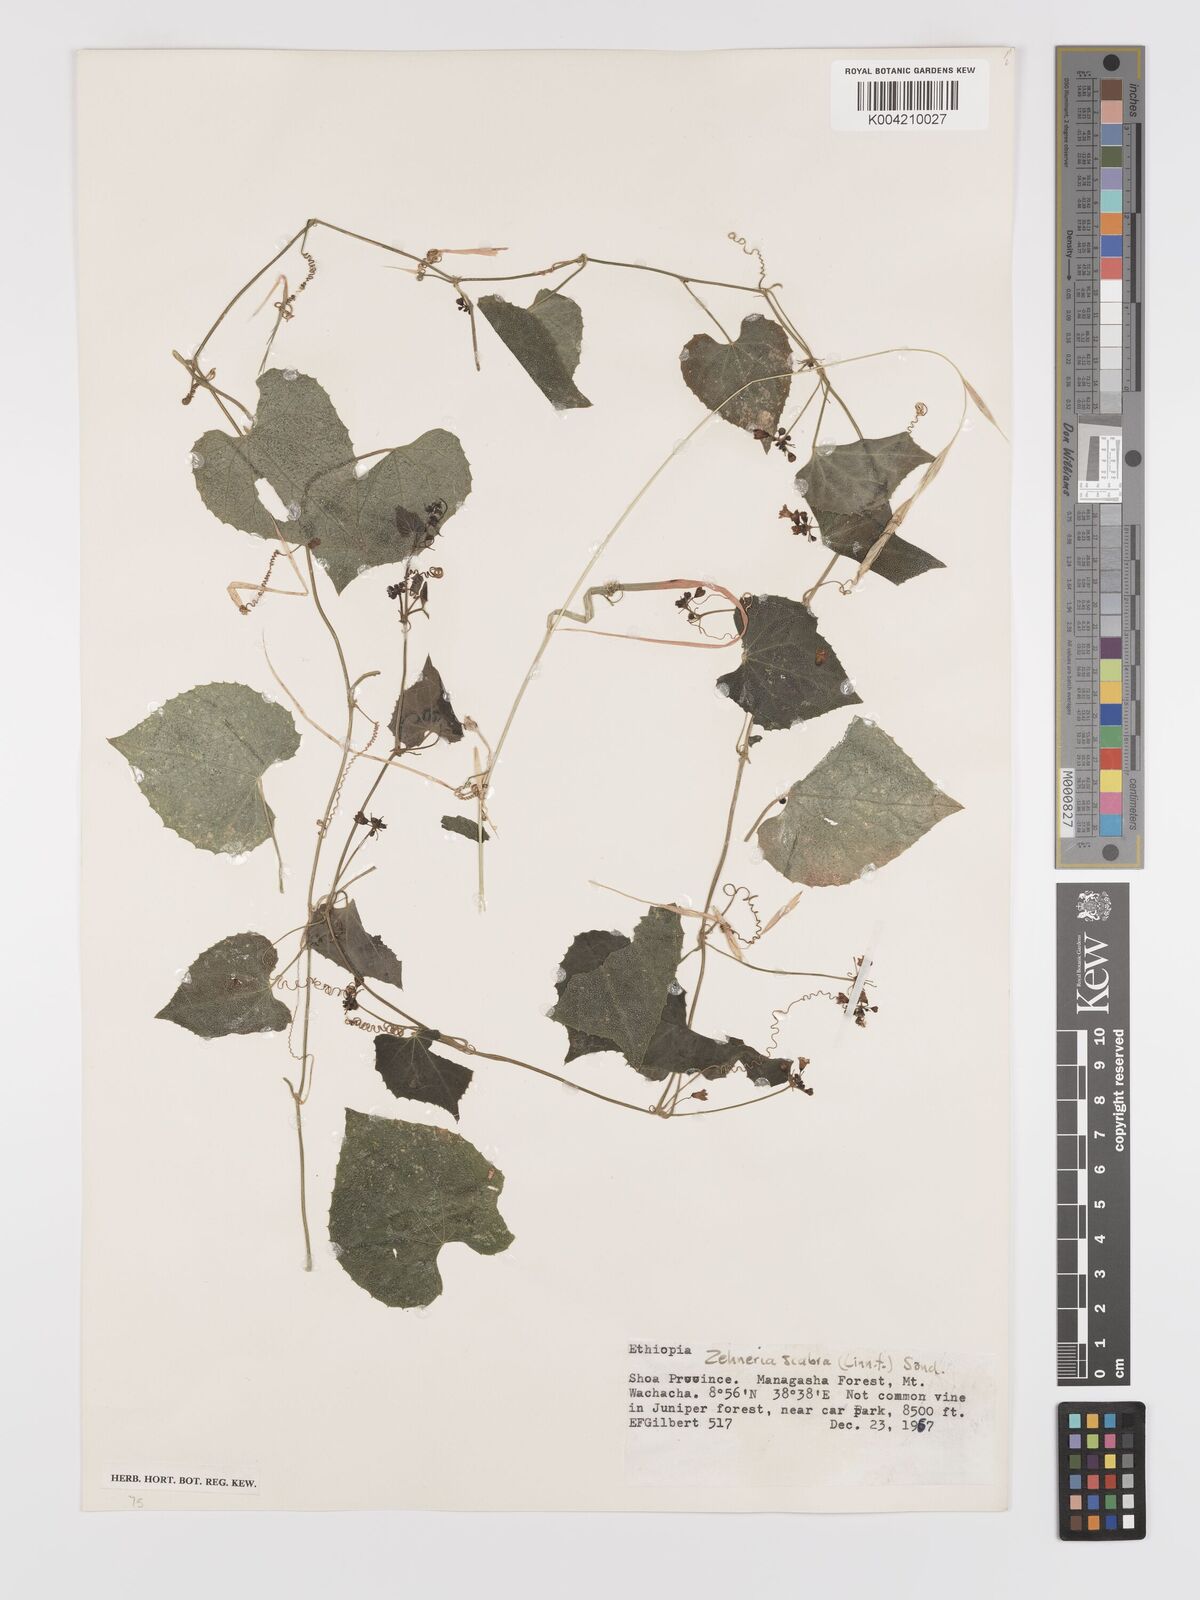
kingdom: Plantae
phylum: Tracheophyta
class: Magnoliopsida
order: Cucurbitales
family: Cucurbitaceae
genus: Zehneria
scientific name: Zehneria scabra
